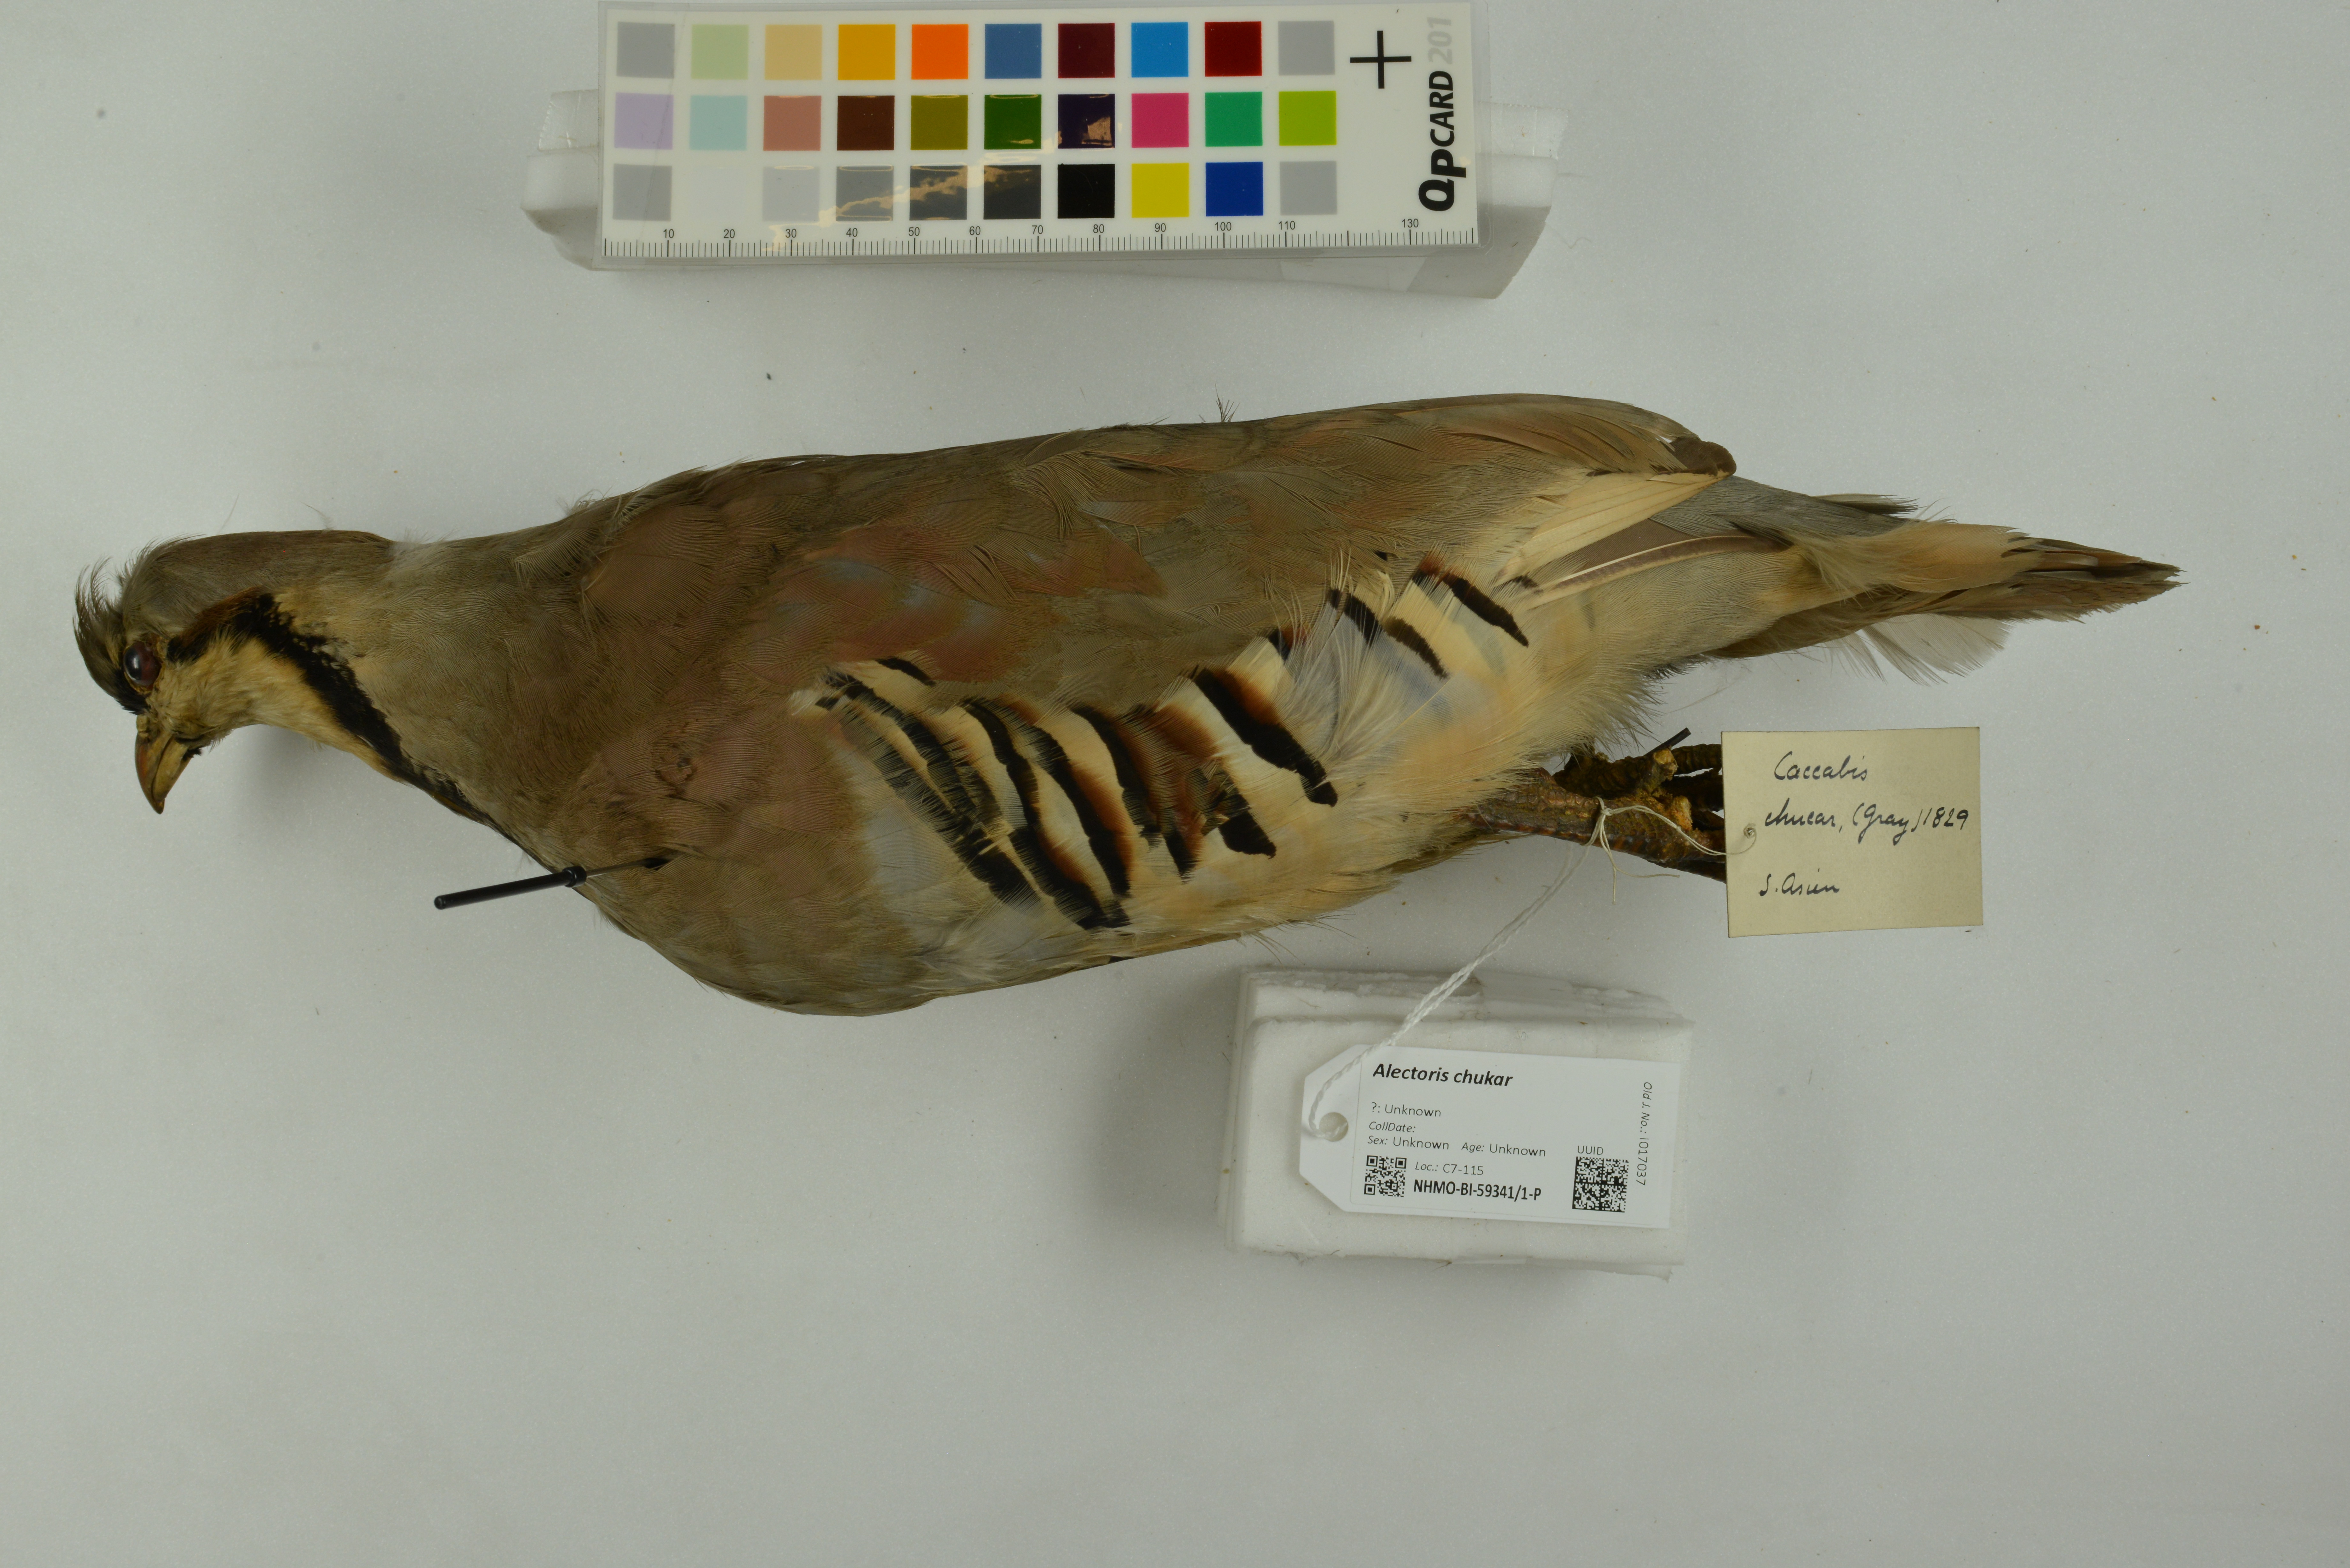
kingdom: Animalia
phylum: Chordata
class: Aves
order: Galliformes
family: Phasianidae
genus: Alectoris
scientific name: Alectoris chukar
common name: Chukar
